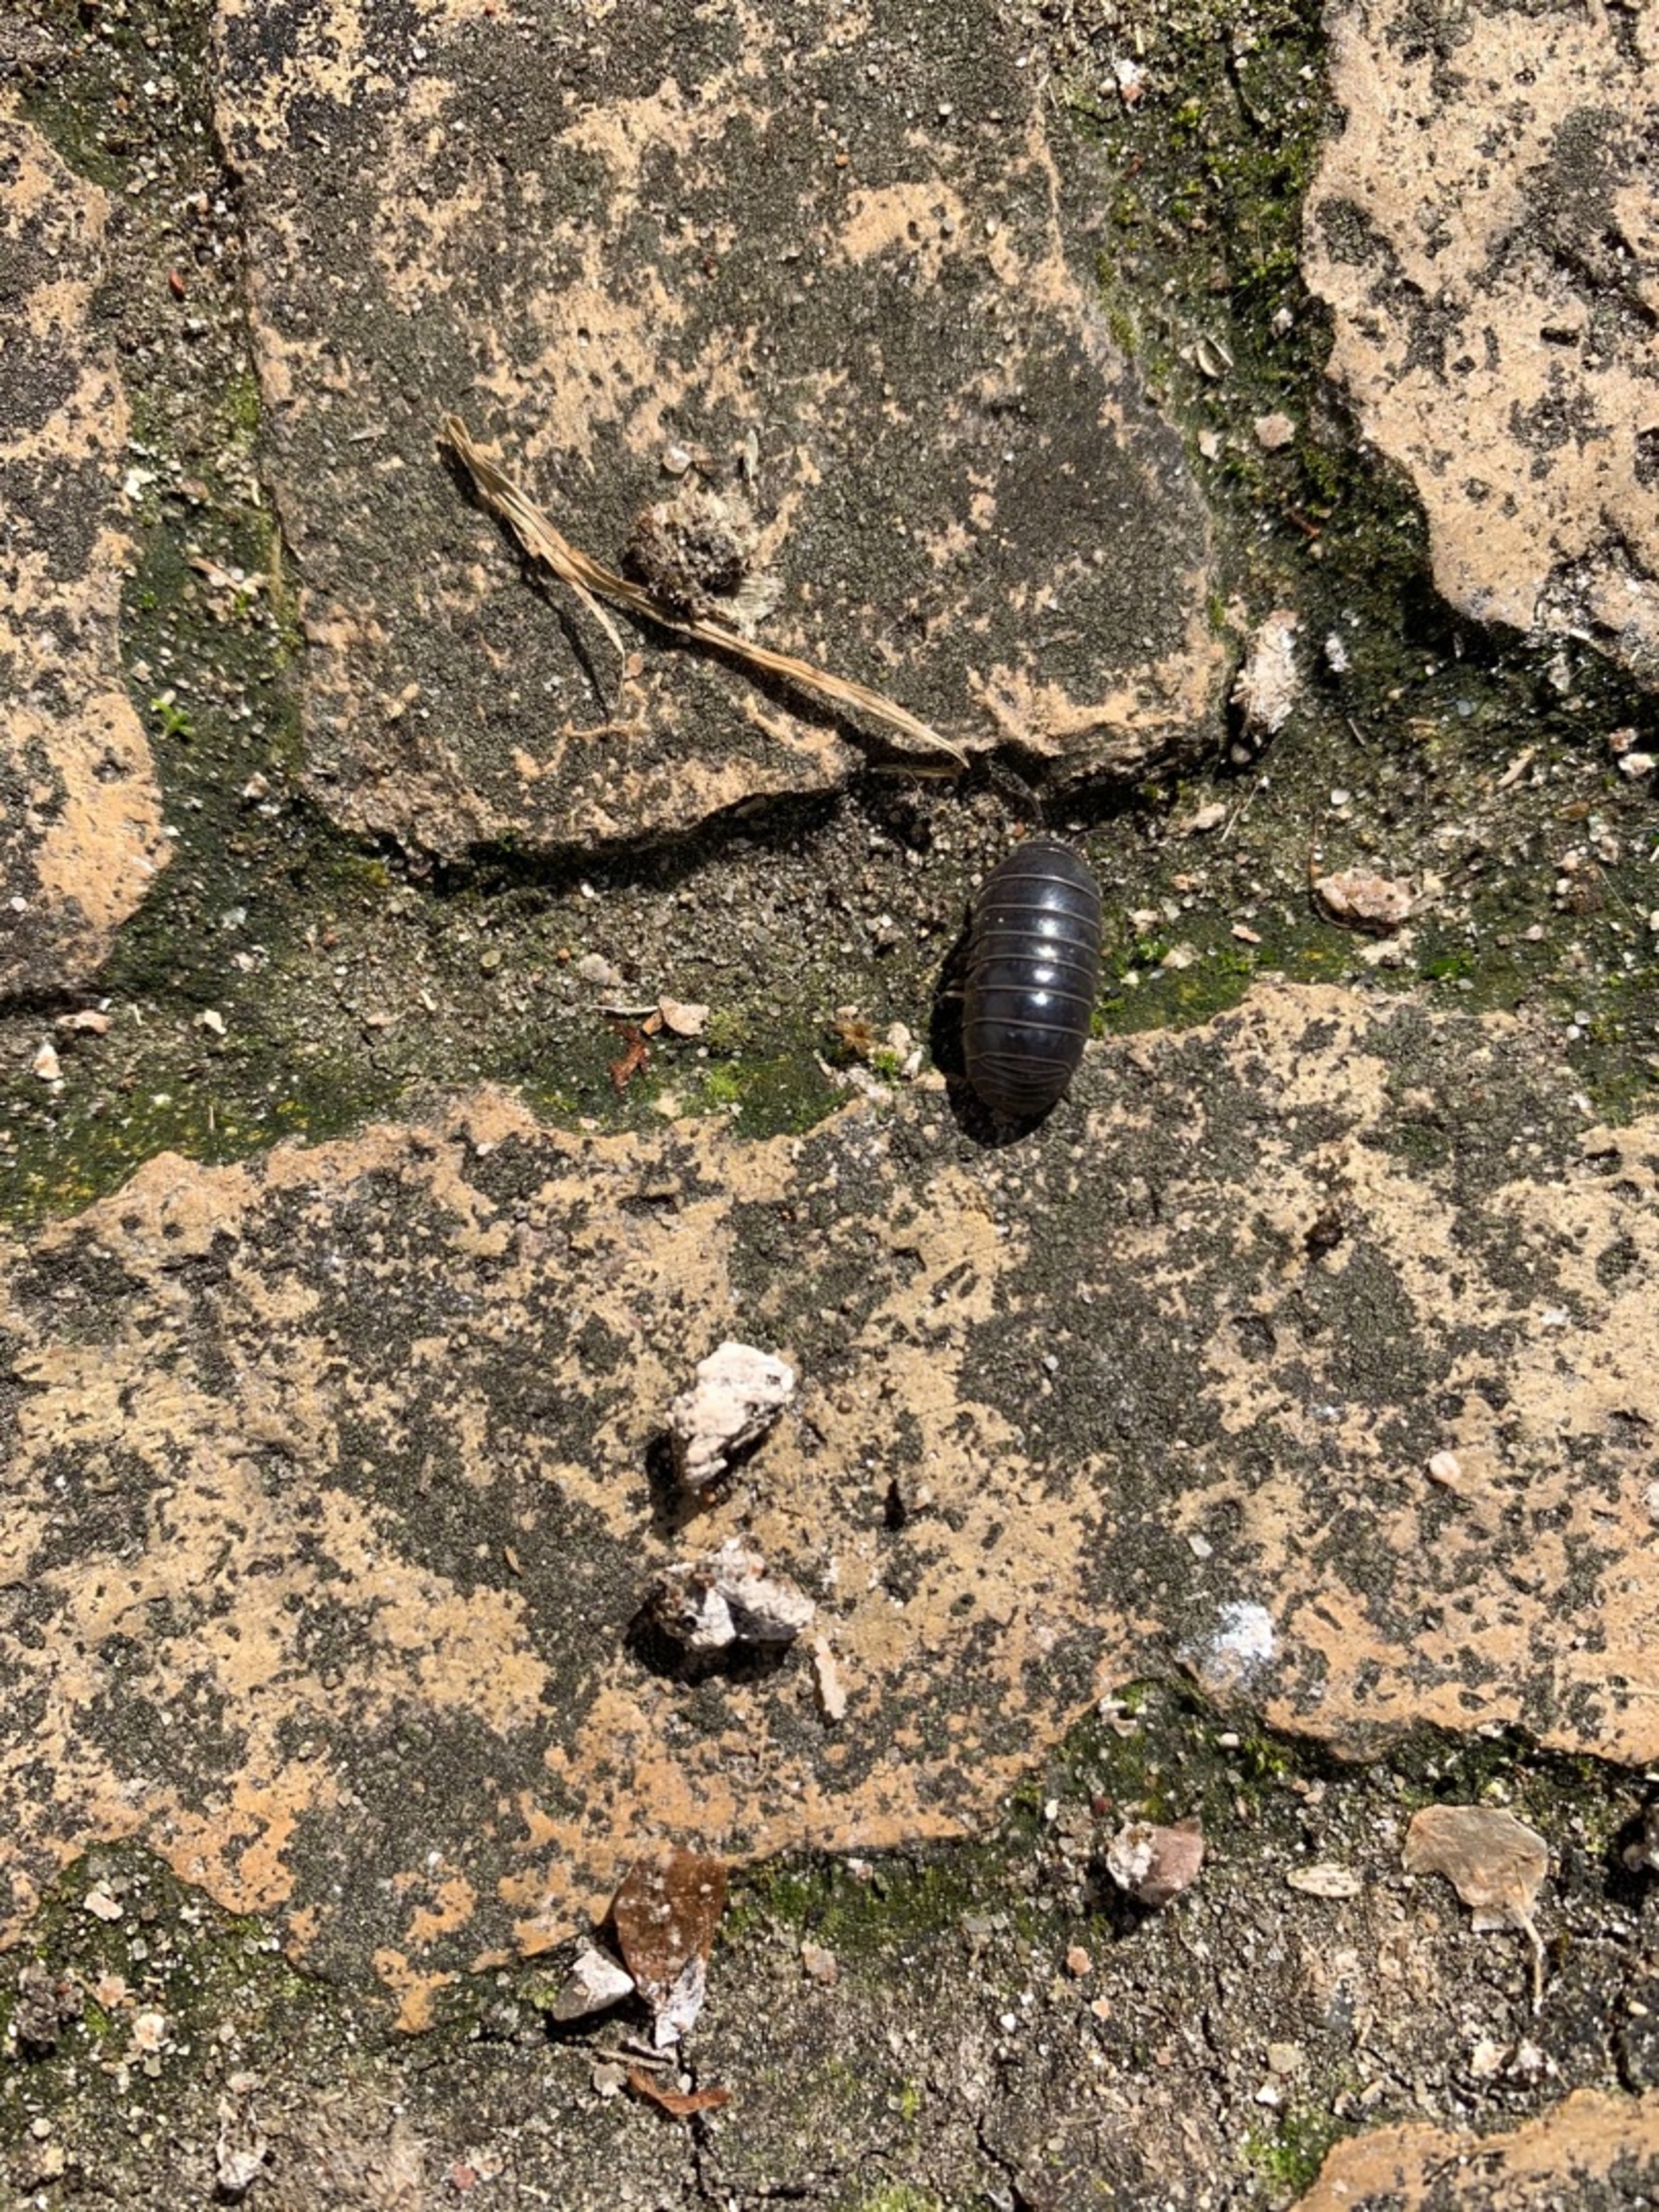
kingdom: Animalia
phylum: Arthropoda
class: Malacostraca
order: Isopoda
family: Armadillidiidae
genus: Armadillidium
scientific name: Armadillidium vulgare
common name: Almindelig kuglebænkebider
